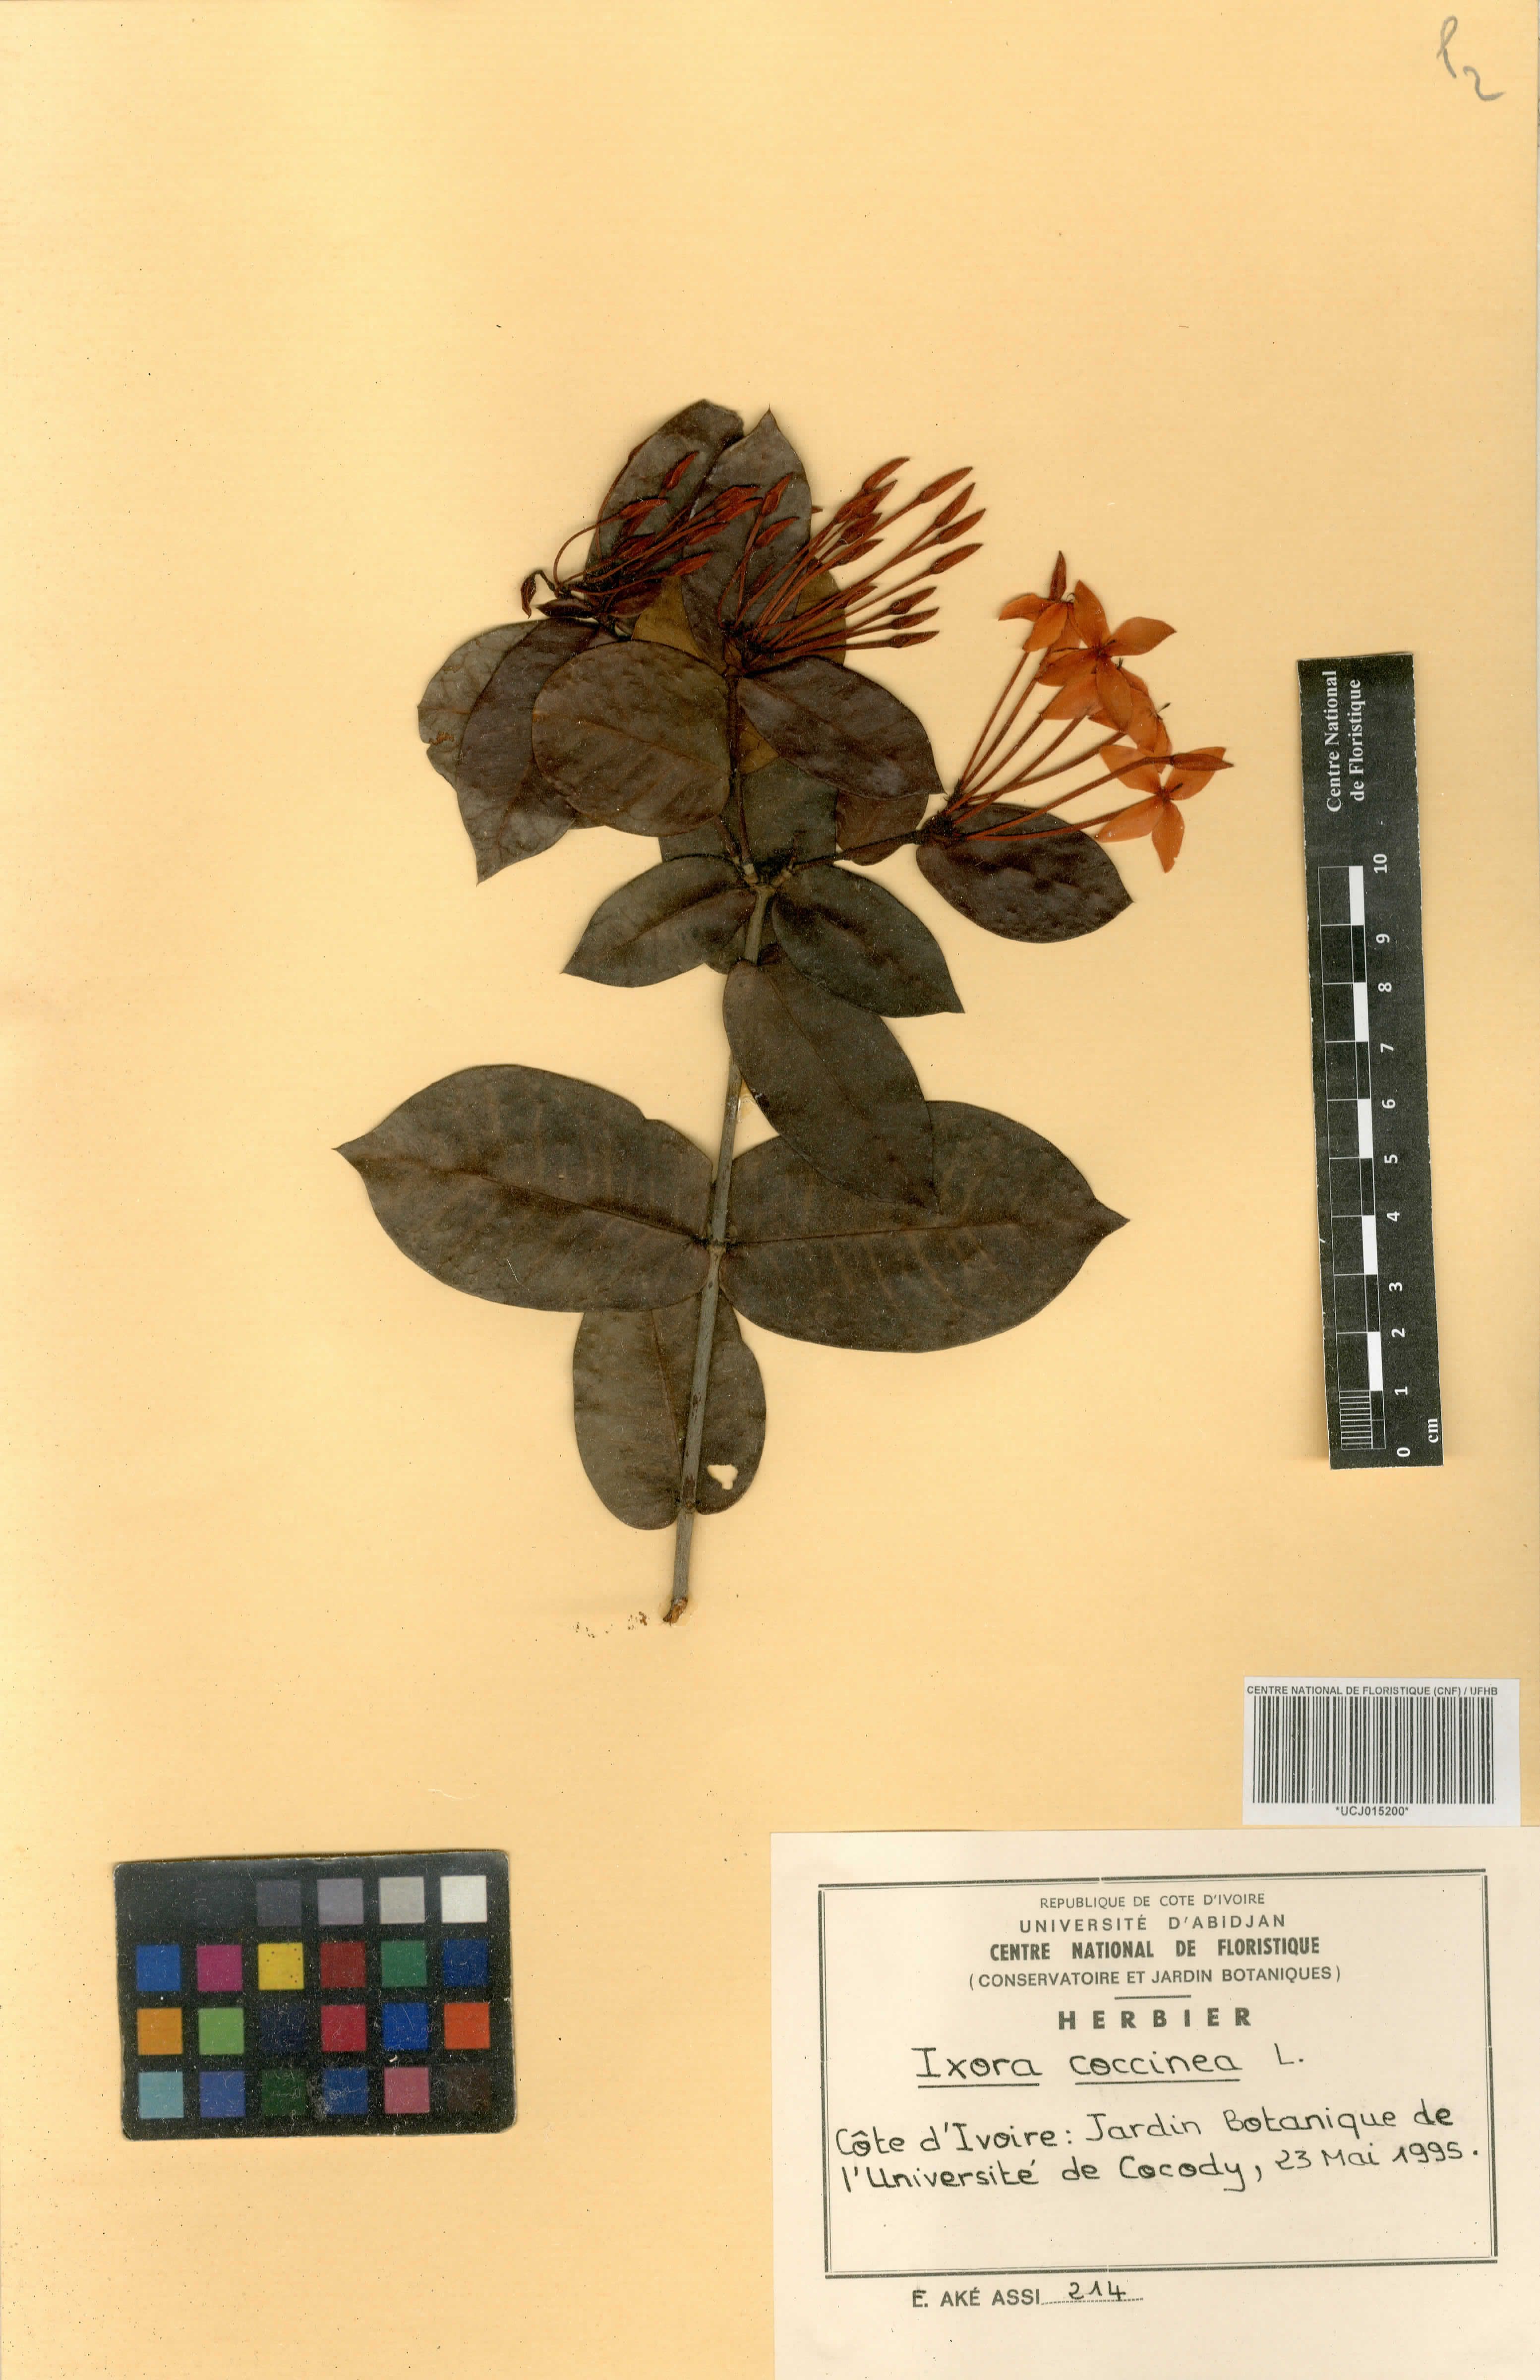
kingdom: Plantae
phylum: Tracheophyta
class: Magnoliopsida
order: Gentianales
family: Rubiaceae
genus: Ixora
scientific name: Ixora coccinea
